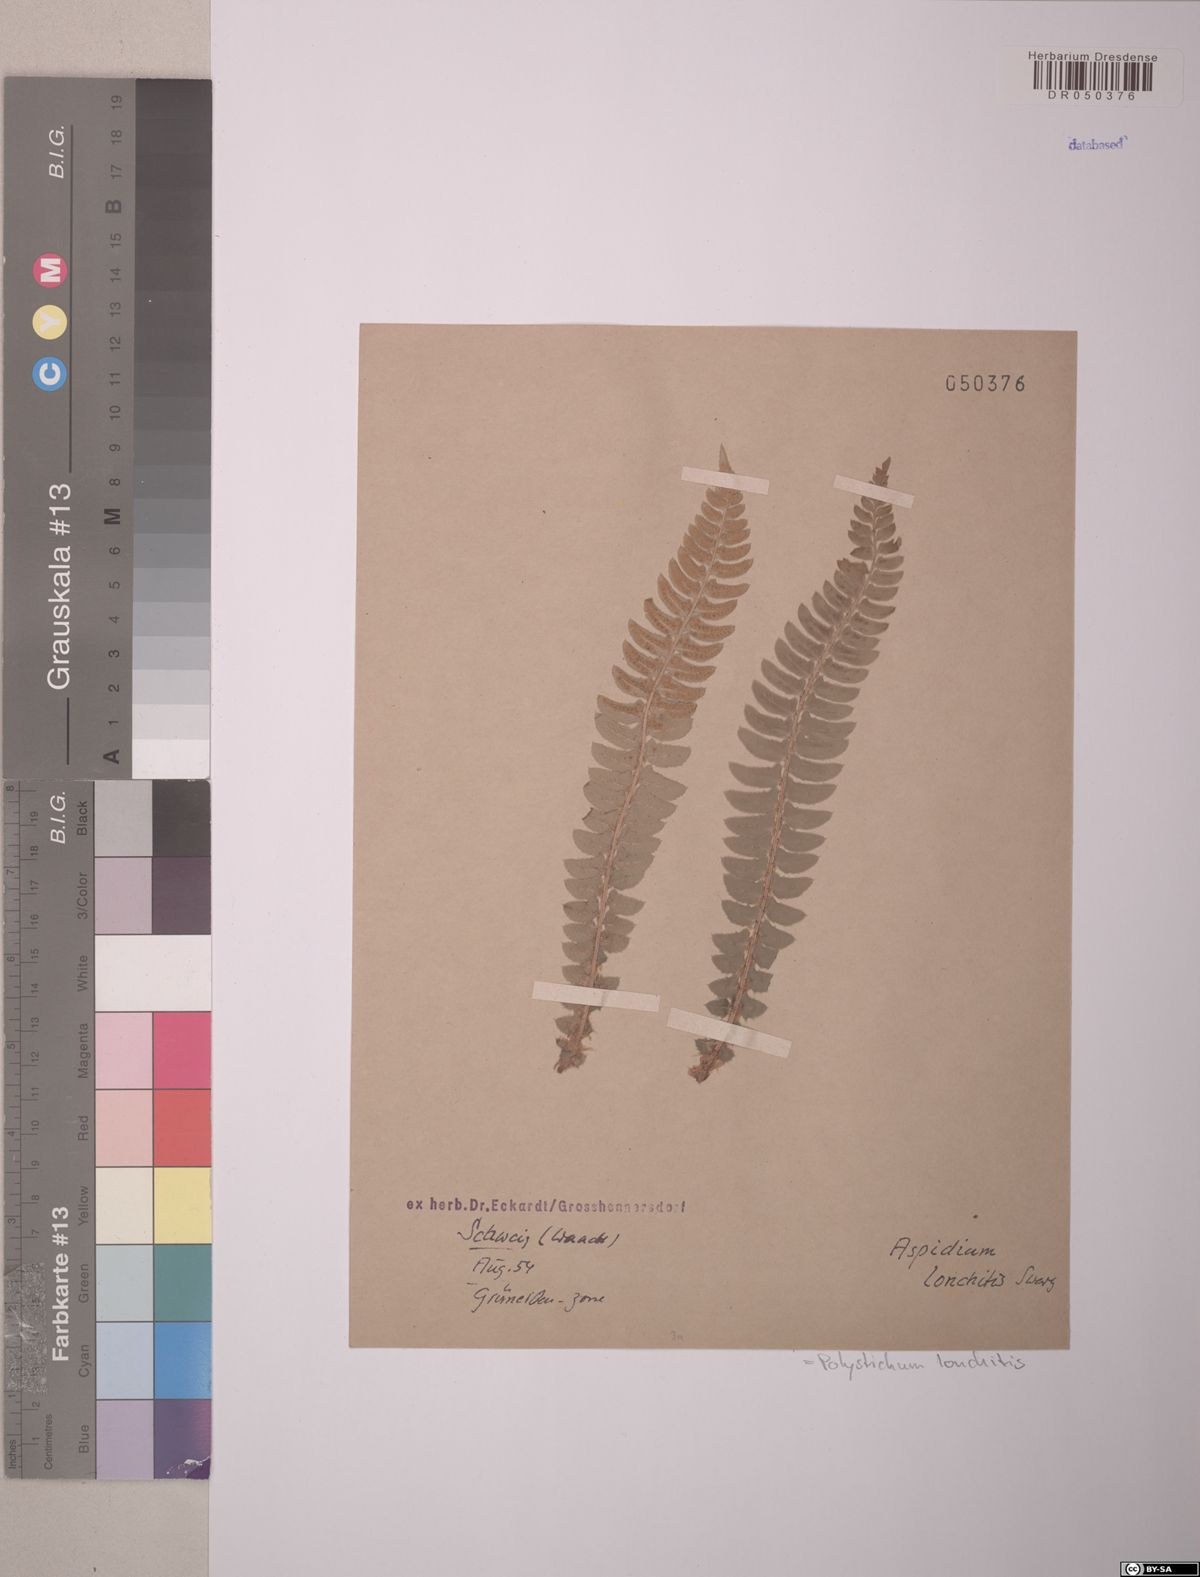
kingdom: Plantae
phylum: Tracheophyta
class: Polypodiopsida
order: Polypodiales
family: Dryopteridaceae
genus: Polystichum
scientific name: Polystichum lonchitis
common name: Holly fern
